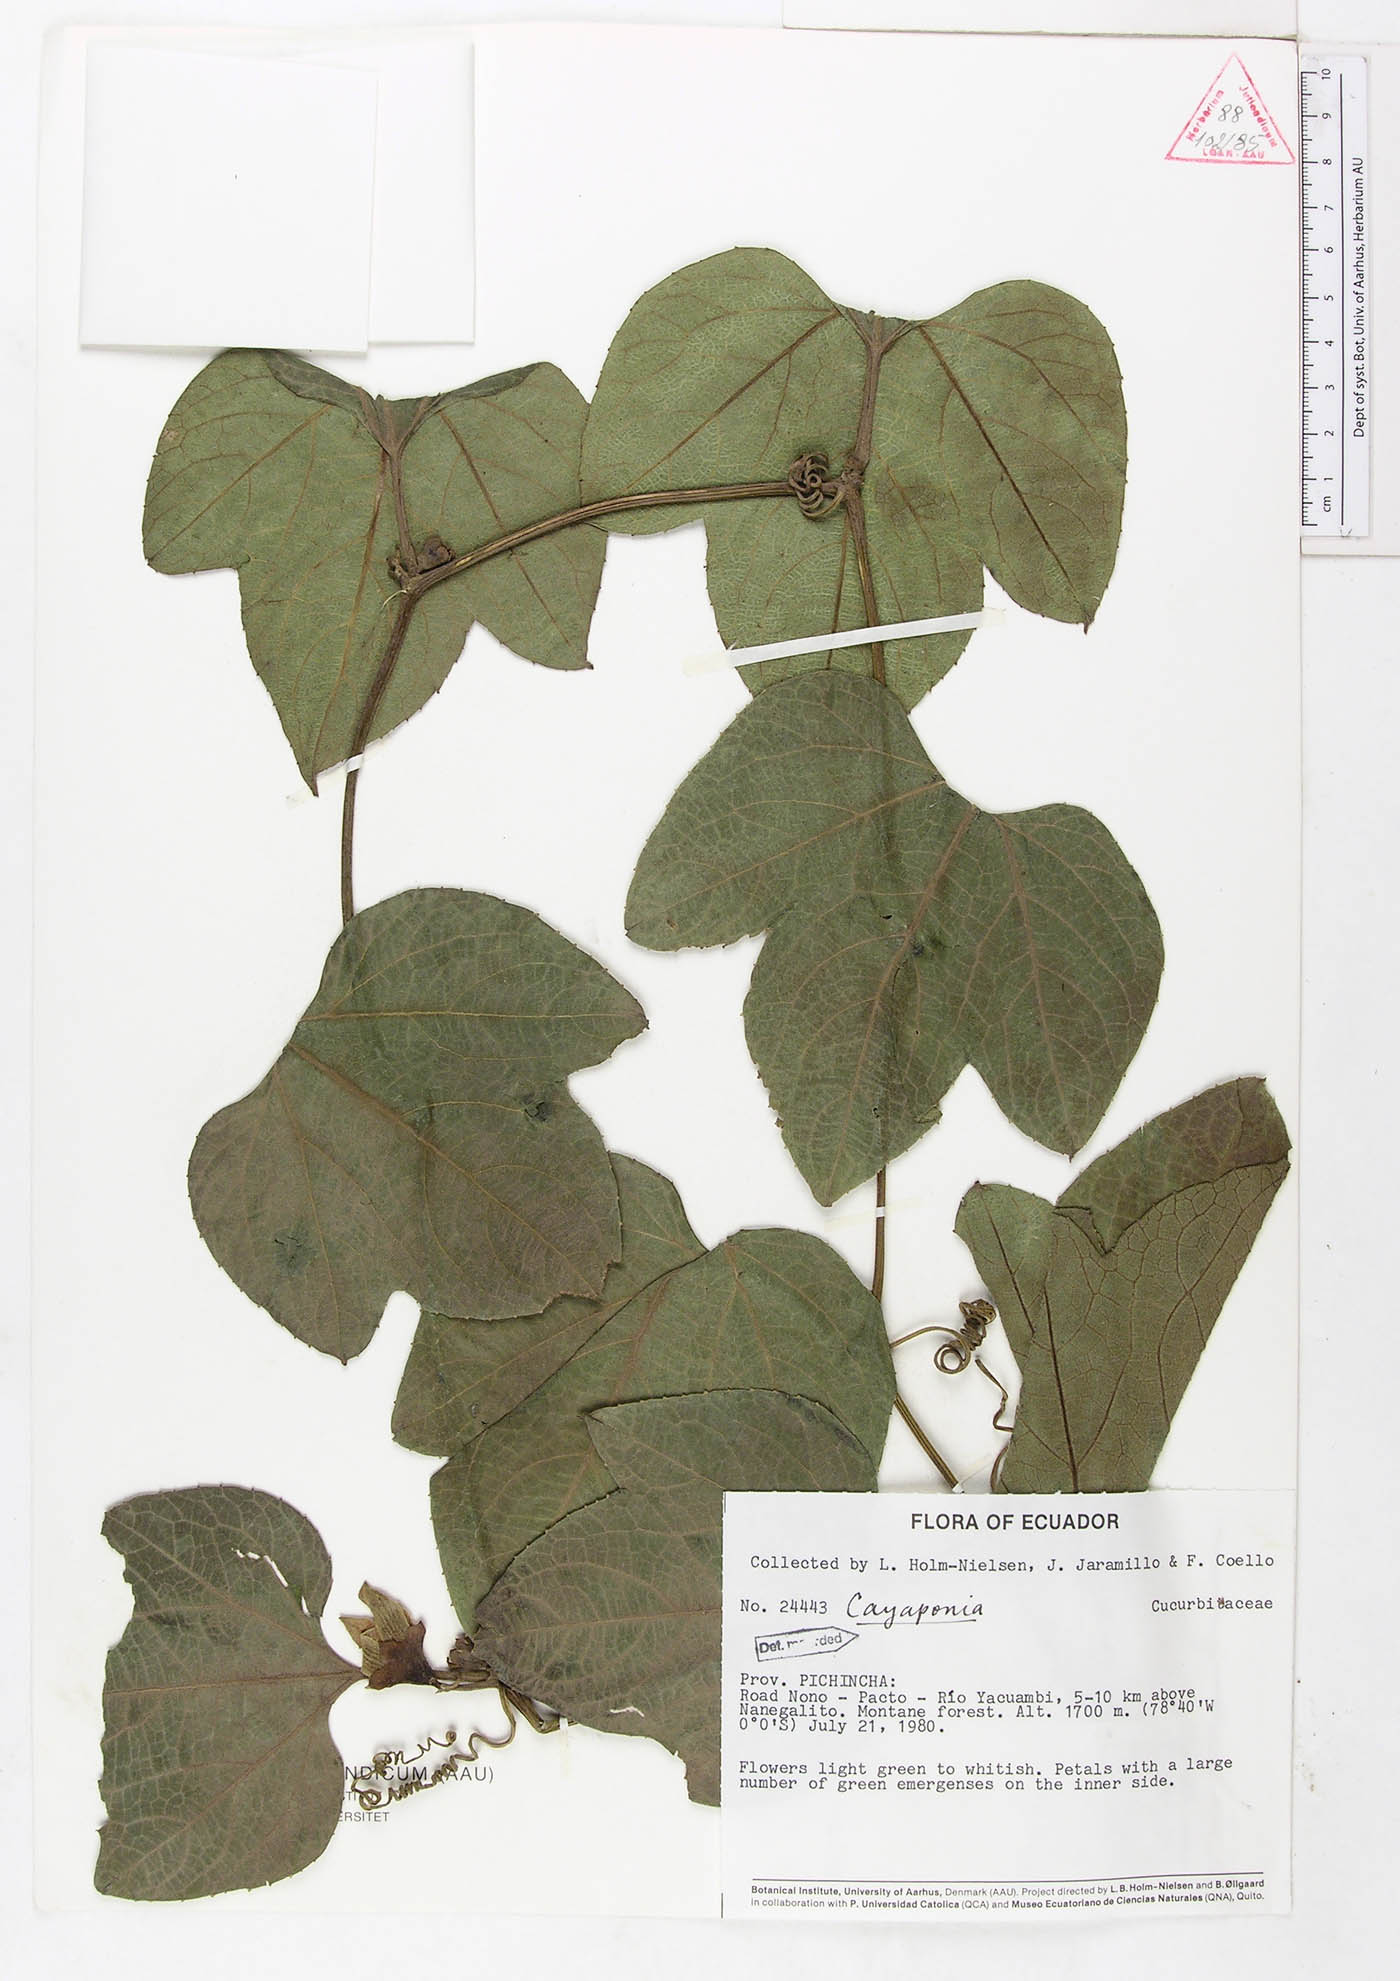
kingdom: Plantae
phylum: Tracheophyta
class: Magnoliopsida
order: Cucurbitales
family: Cucurbitaceae
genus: Cayaponia
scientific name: Cayaponia glandulosa
